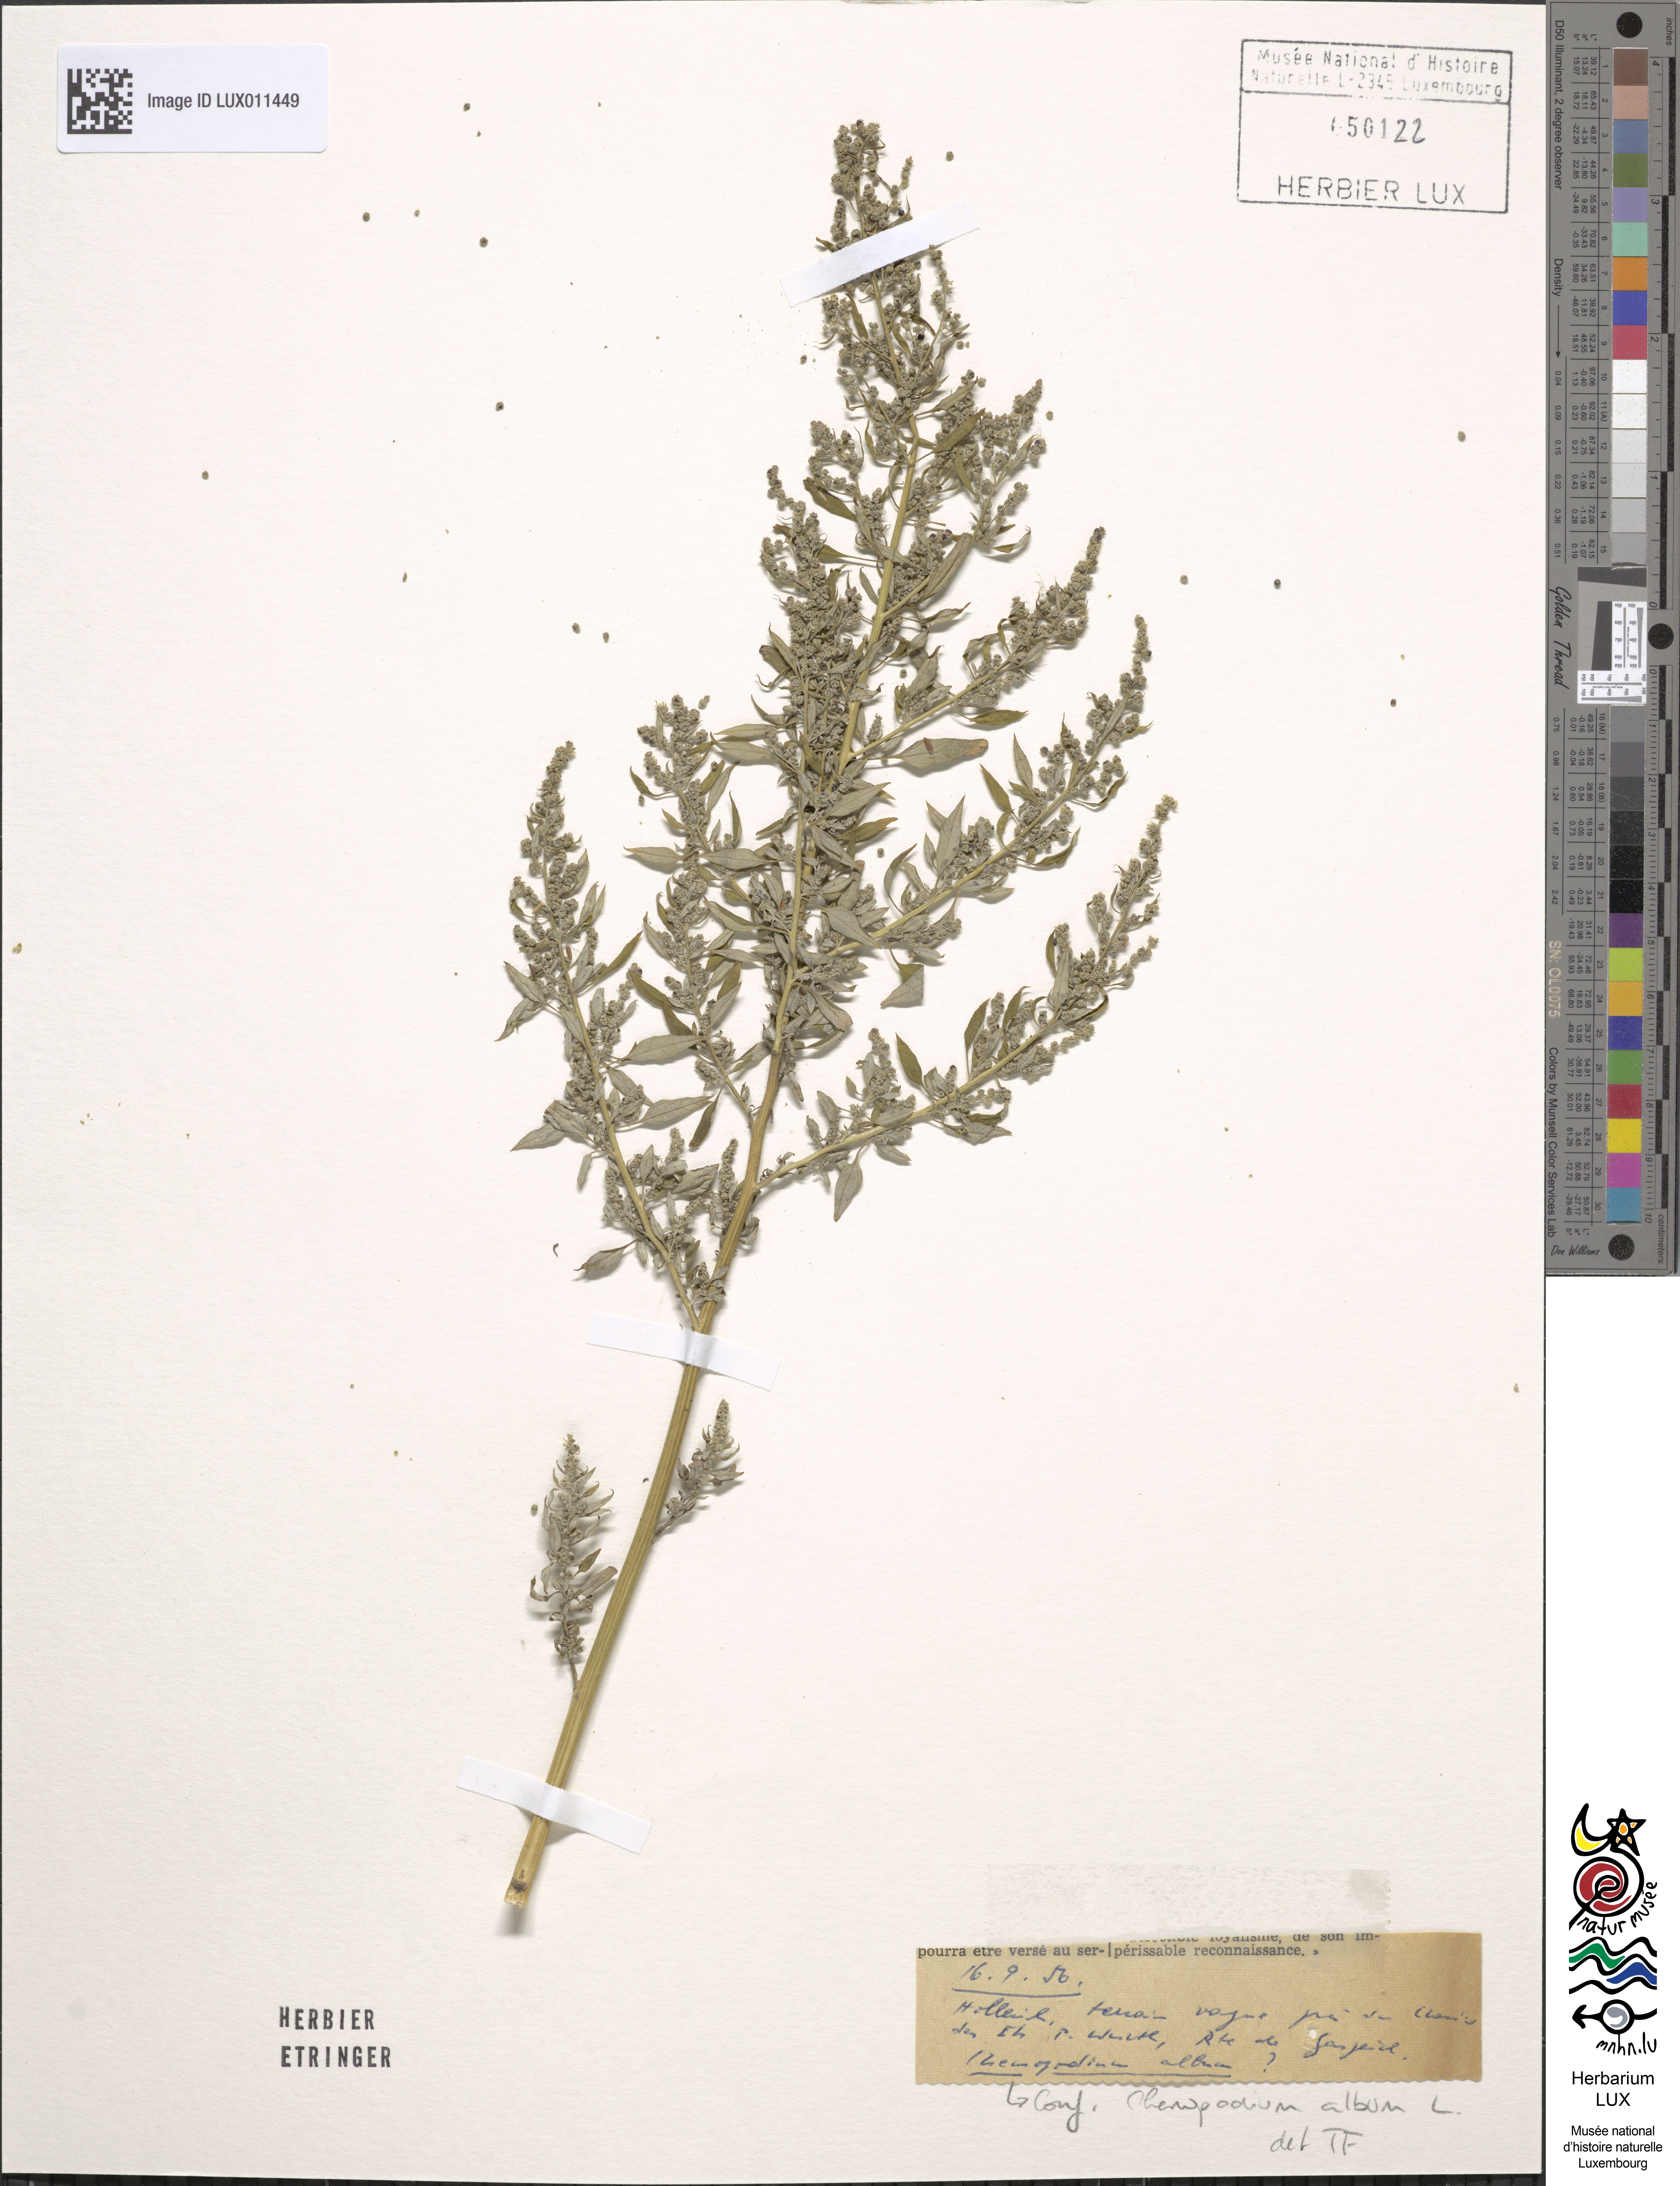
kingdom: Plantae
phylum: Tracheophyta
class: Magnoliopsida
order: Caryophyllales
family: Amaranthaceae
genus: Chenopodium
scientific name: Chenopodium album
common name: Fat-hen
